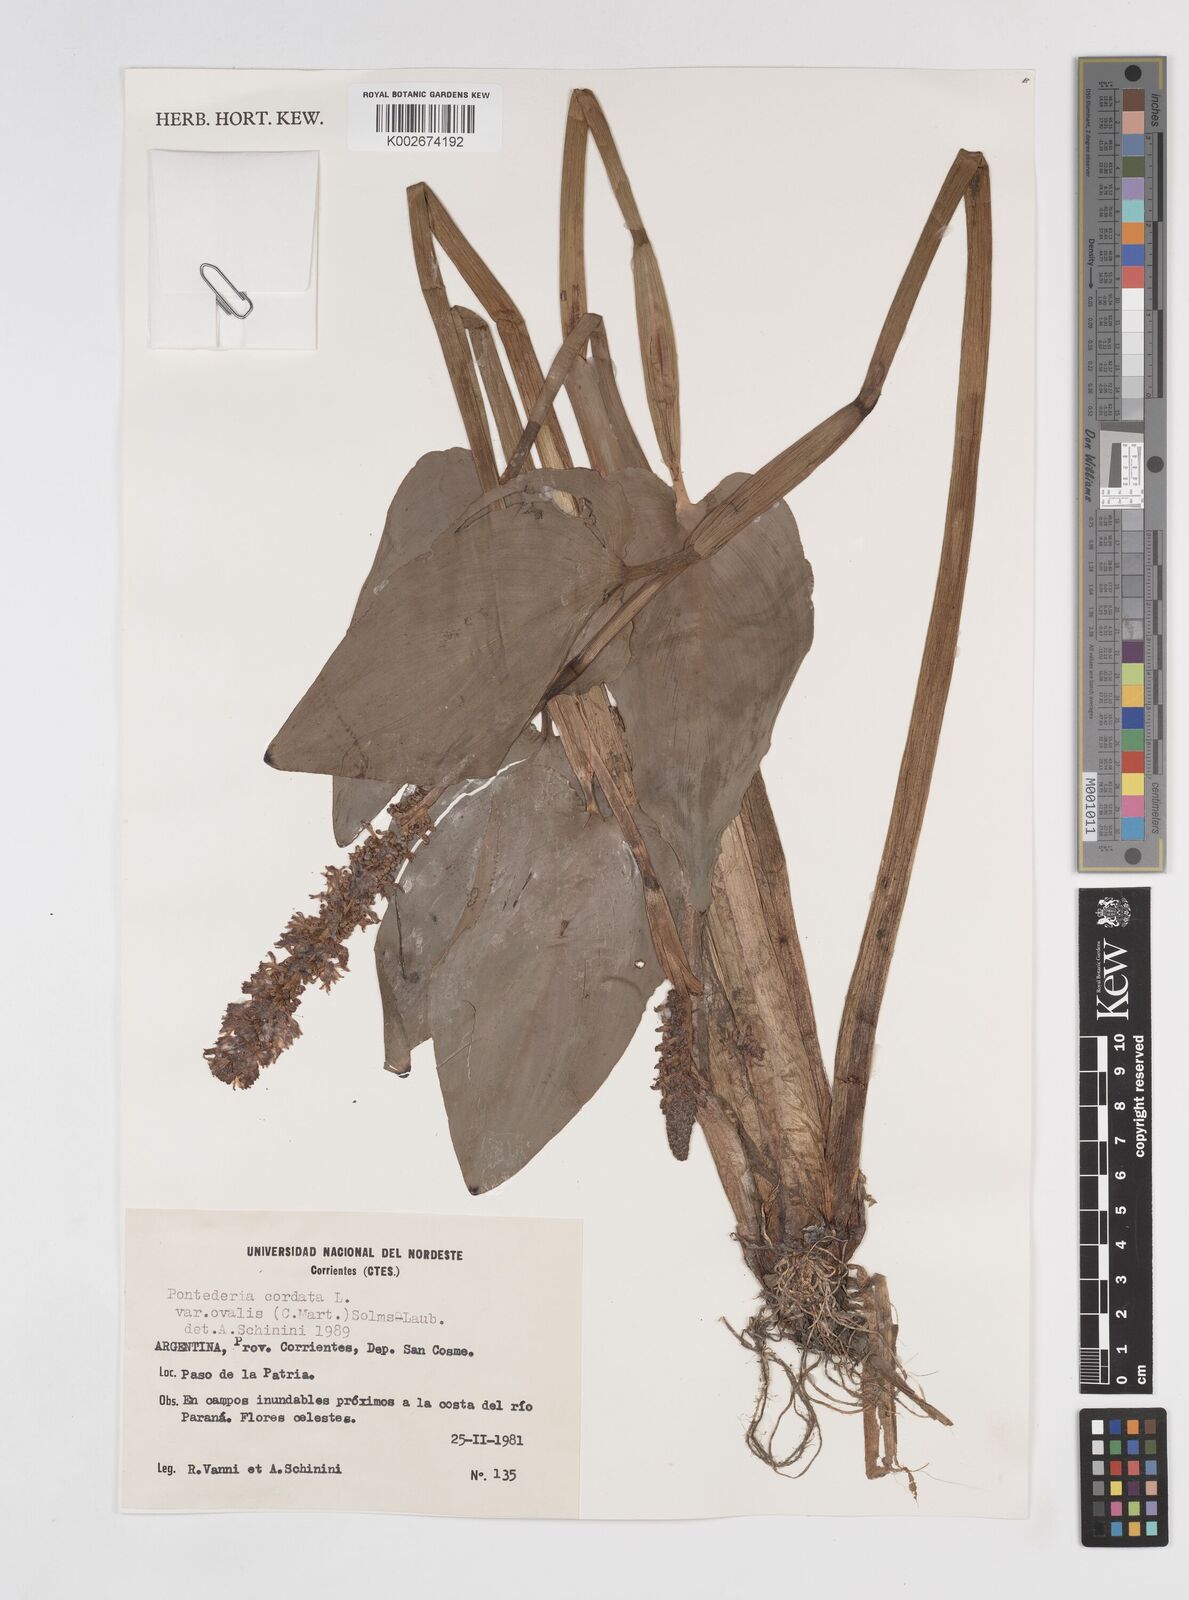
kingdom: Plantae
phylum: Tracheophyta
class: Liliopsida
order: Commelinales
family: Pontederiaceae
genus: Pontederia
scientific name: Pontederia
